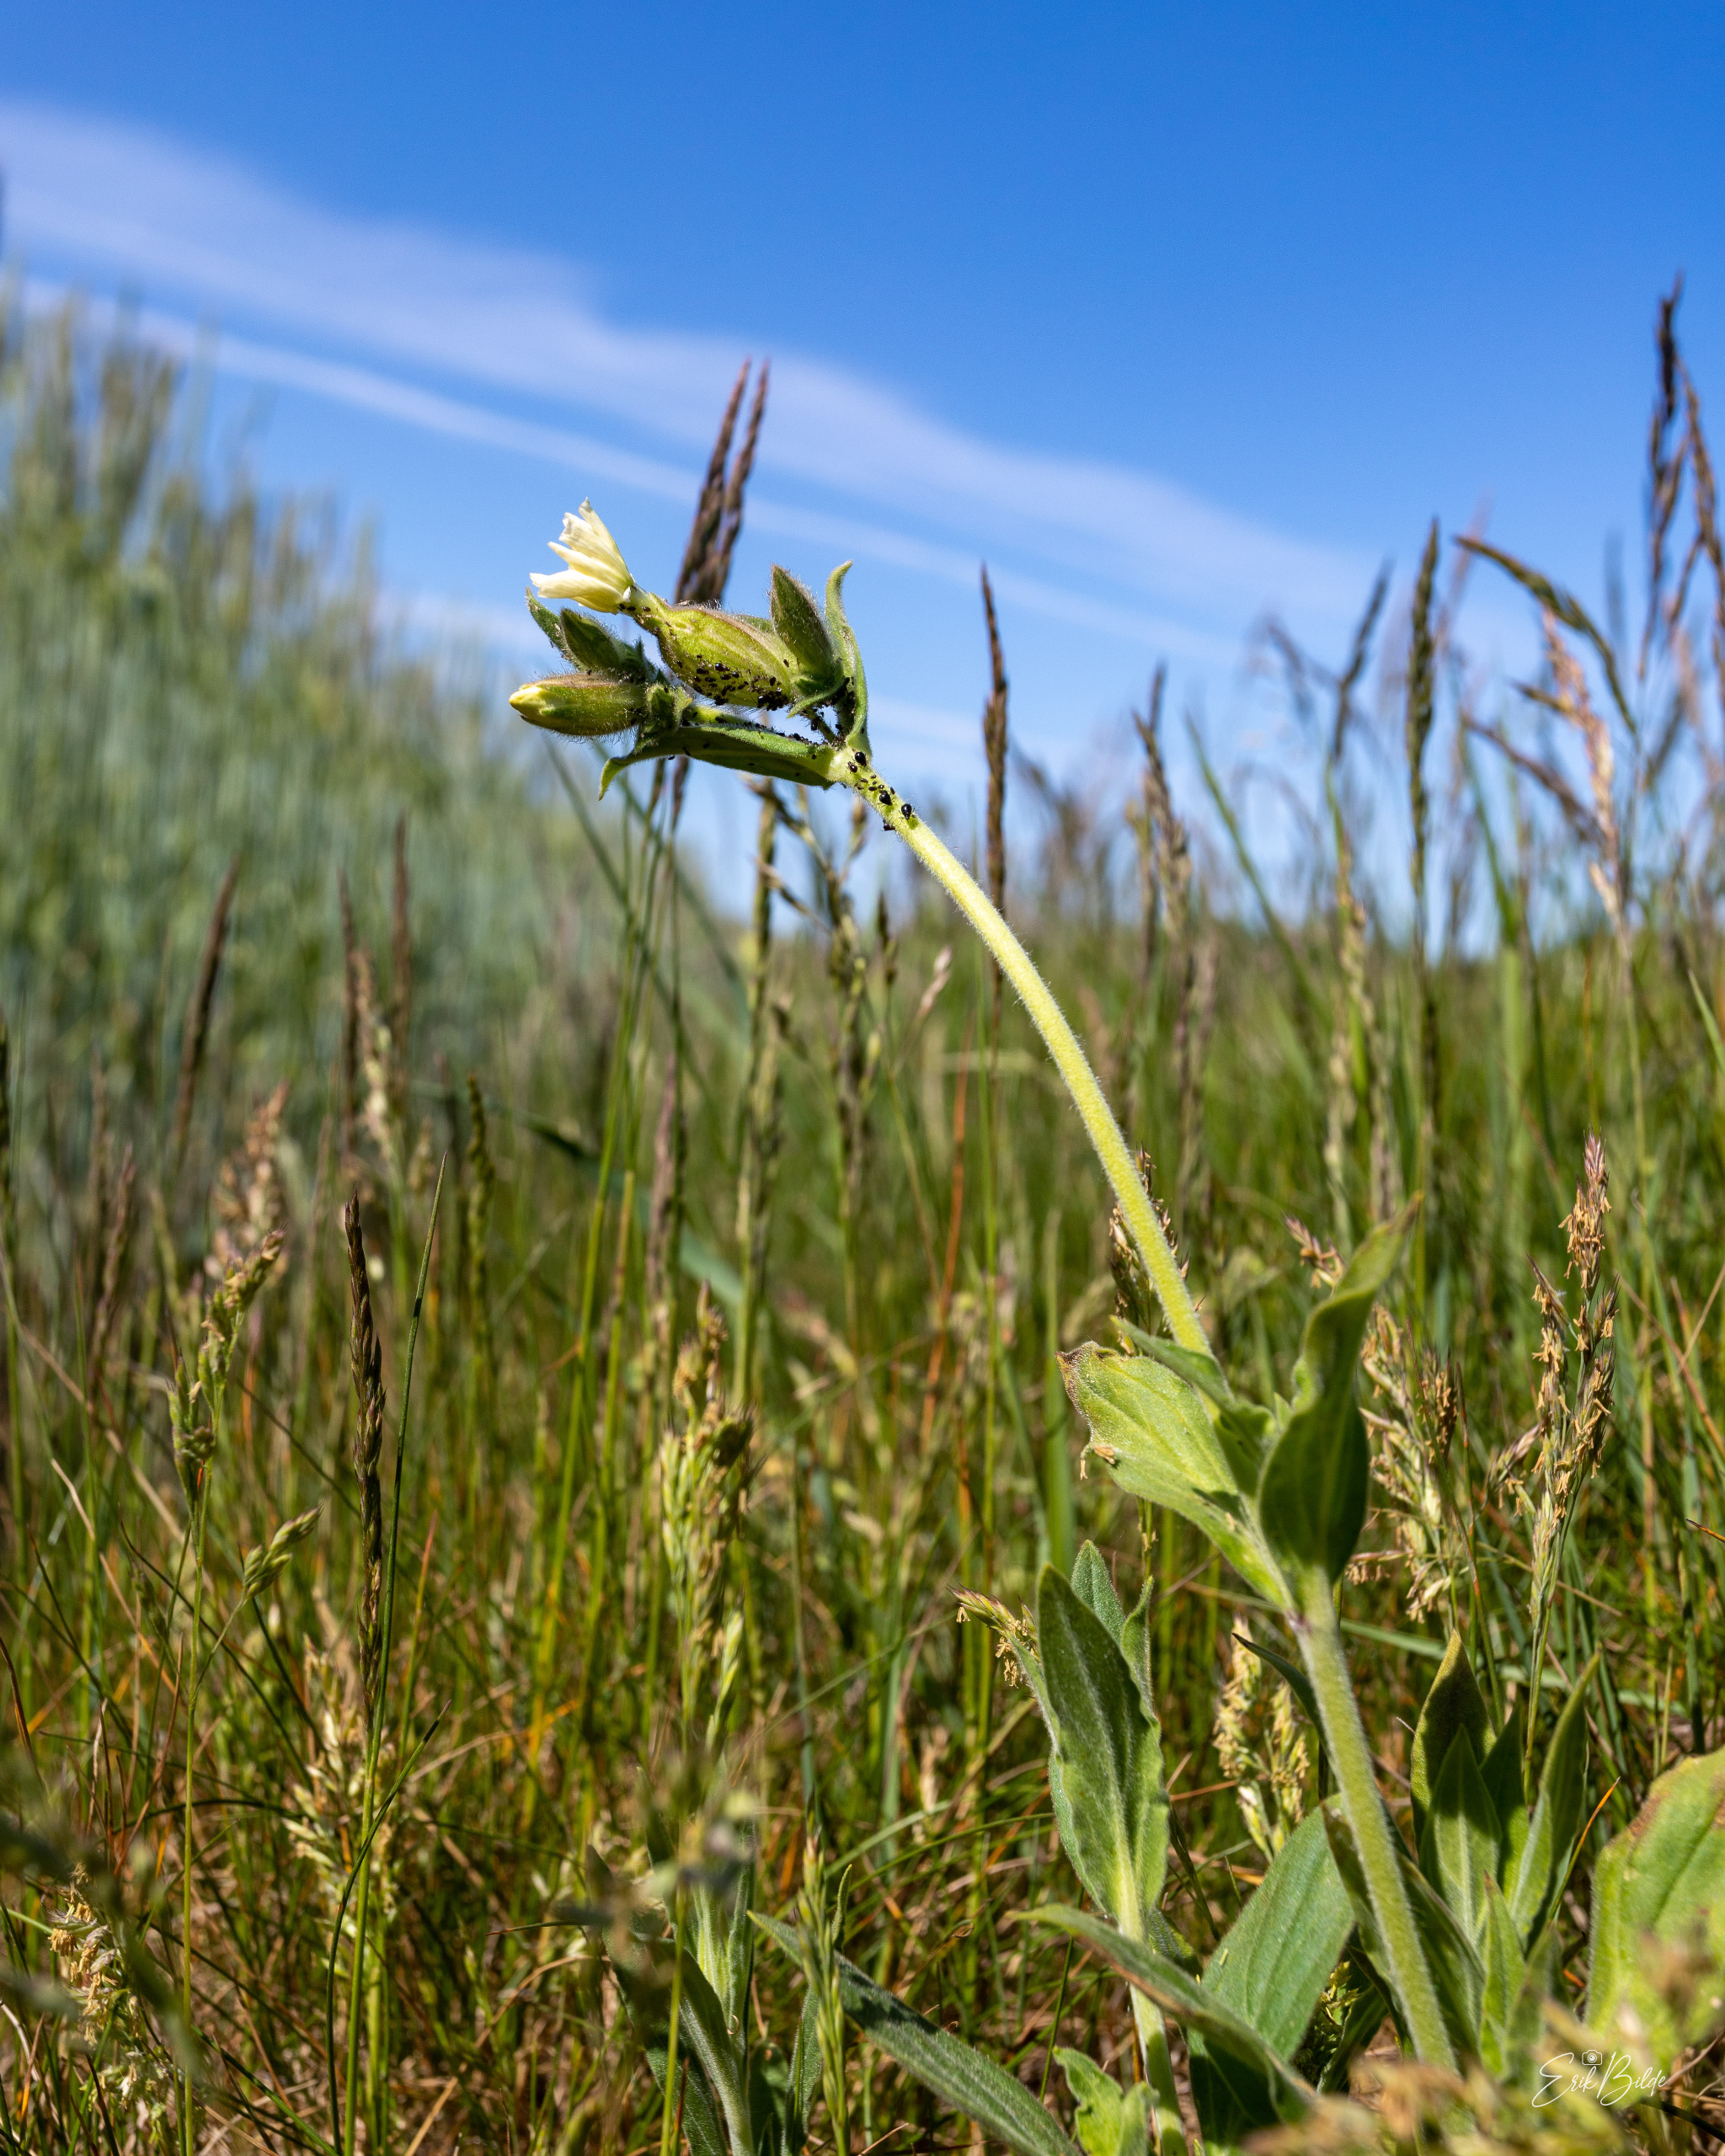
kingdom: Plantae
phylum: Tracheophyta
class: Magnoliopsida
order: Caryophyllales
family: Caryophyllaceae
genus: Silene
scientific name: Silene latifolia
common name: Aftenpragtstjerne
